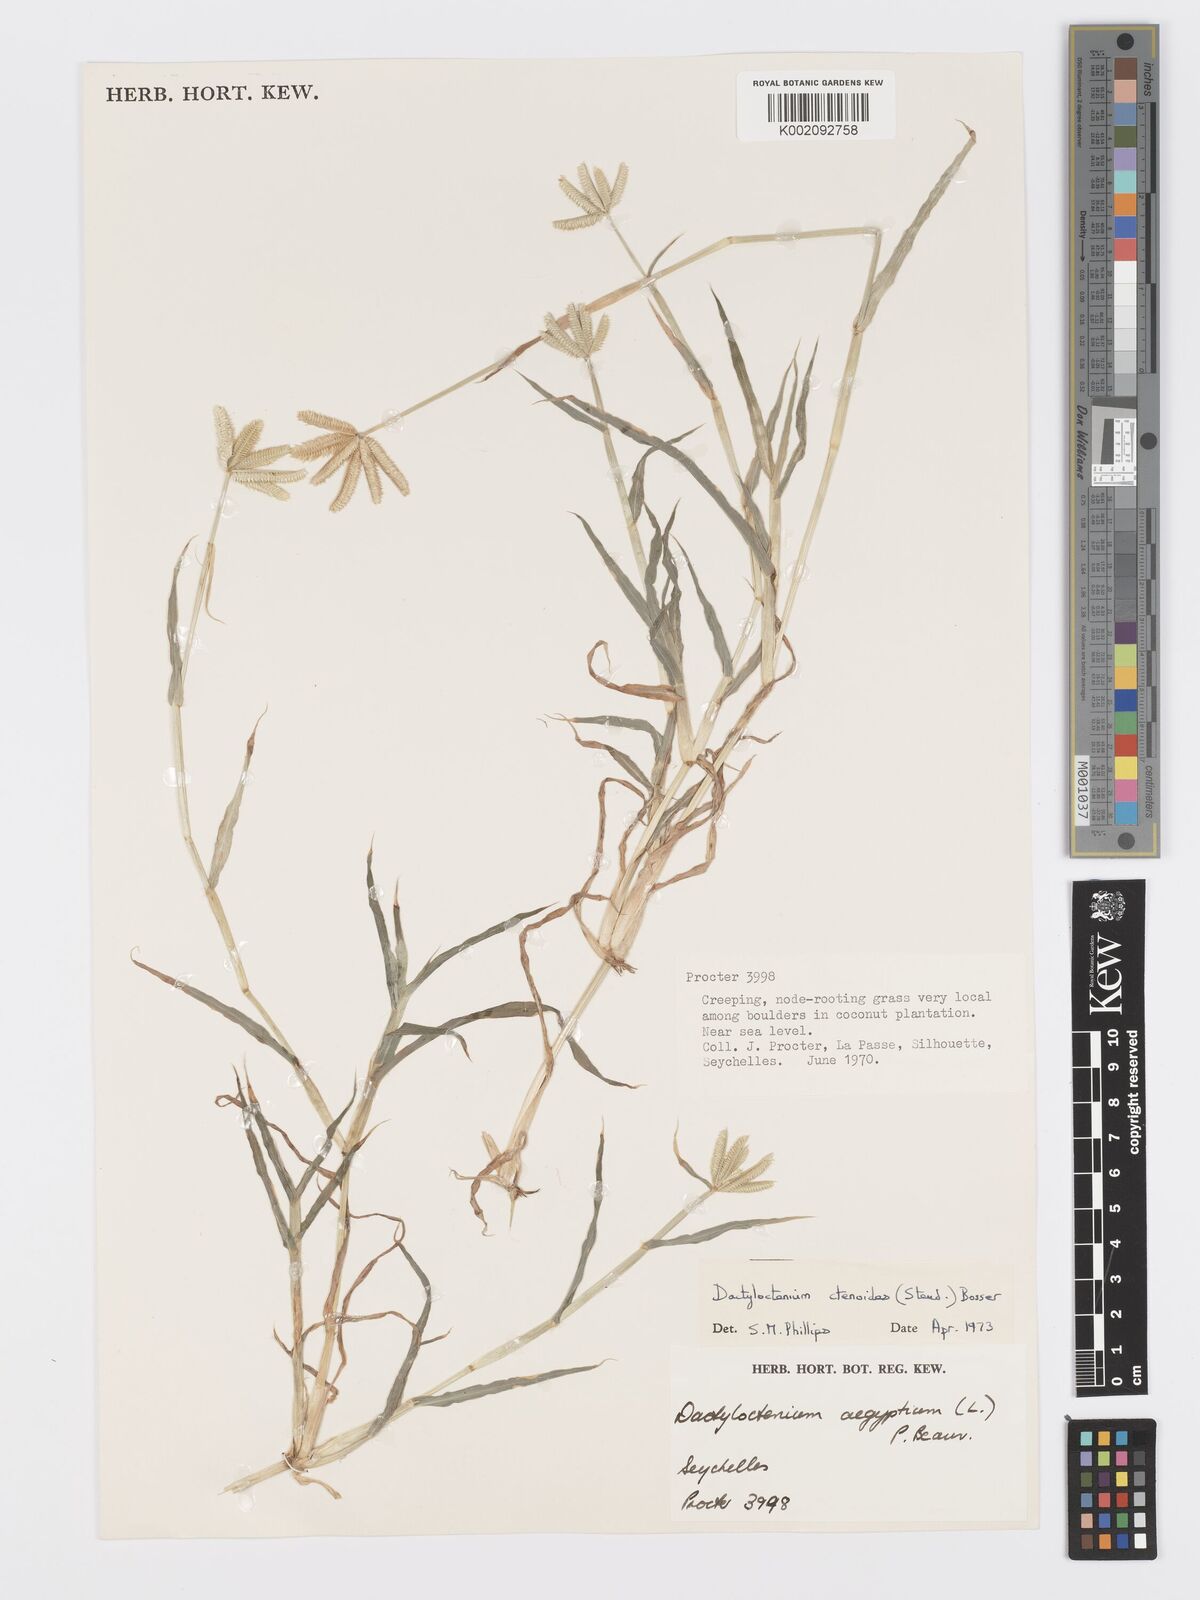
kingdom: Plantae
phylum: Tracheophyta
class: Liliopsida
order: Poales
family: Poaceae
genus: Dactyloctenium
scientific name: Dactyloctenium ctenoides
